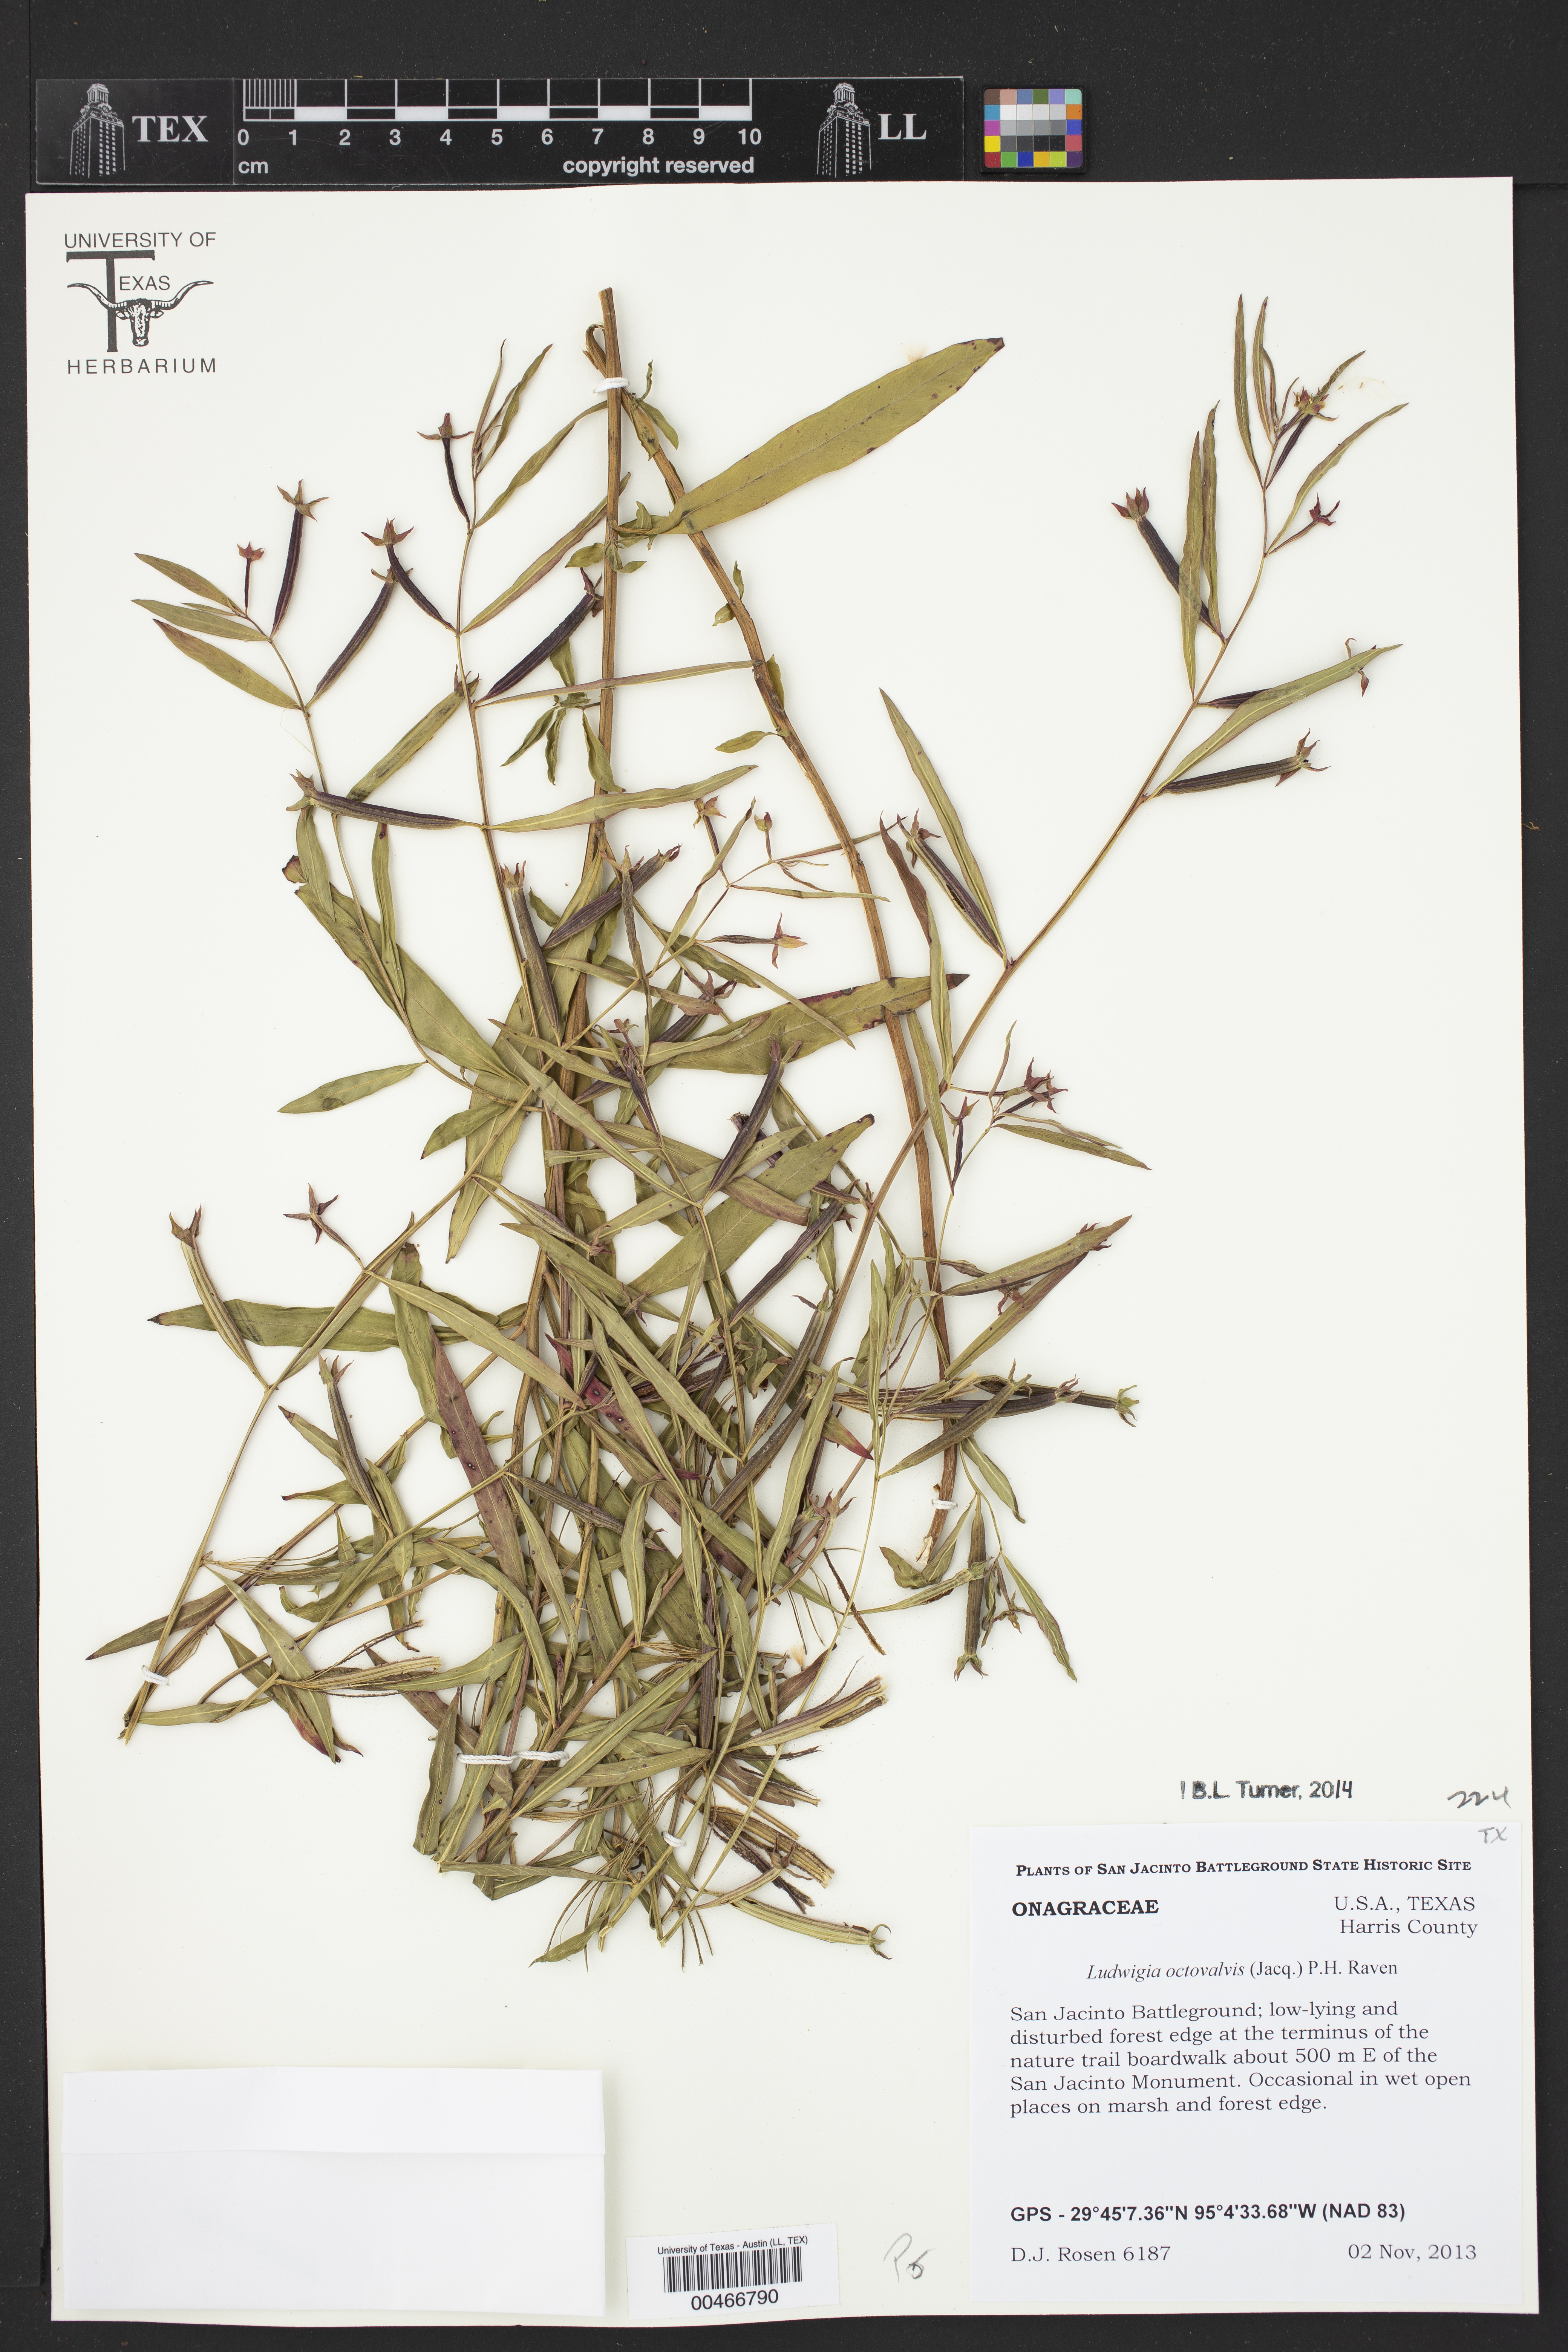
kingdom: Plantae
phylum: Tracheophyta
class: Magnoliopsida
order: Myrtales
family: Onagraceae
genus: Ludwigia
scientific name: Ludwigia octovalvis
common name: Water-primrose
